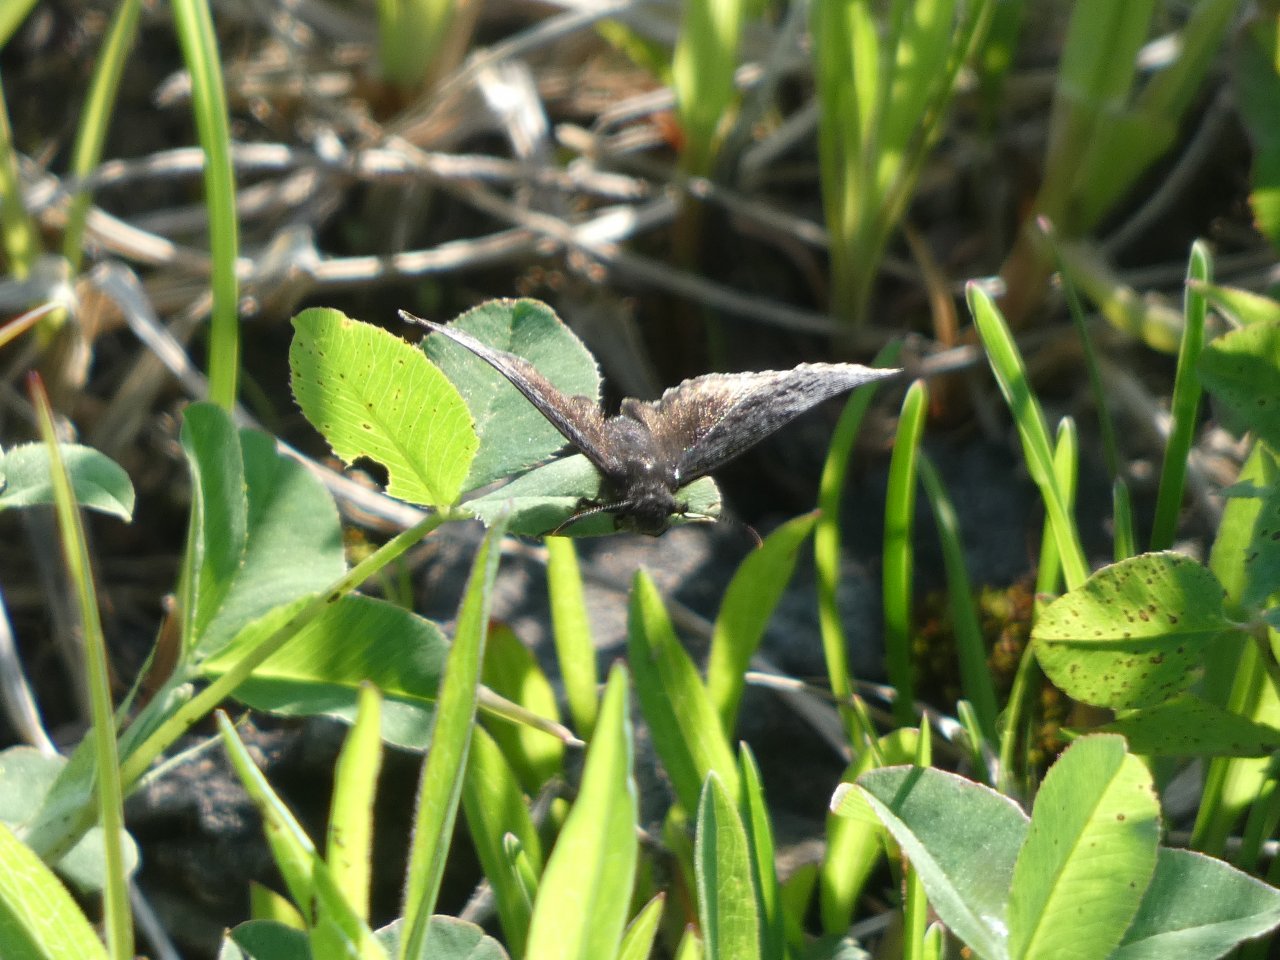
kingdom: Animalia
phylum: Arthropoda
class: Insecta
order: Lepidoptera
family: Hesperiidae
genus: Erynnis
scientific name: Erynnis
